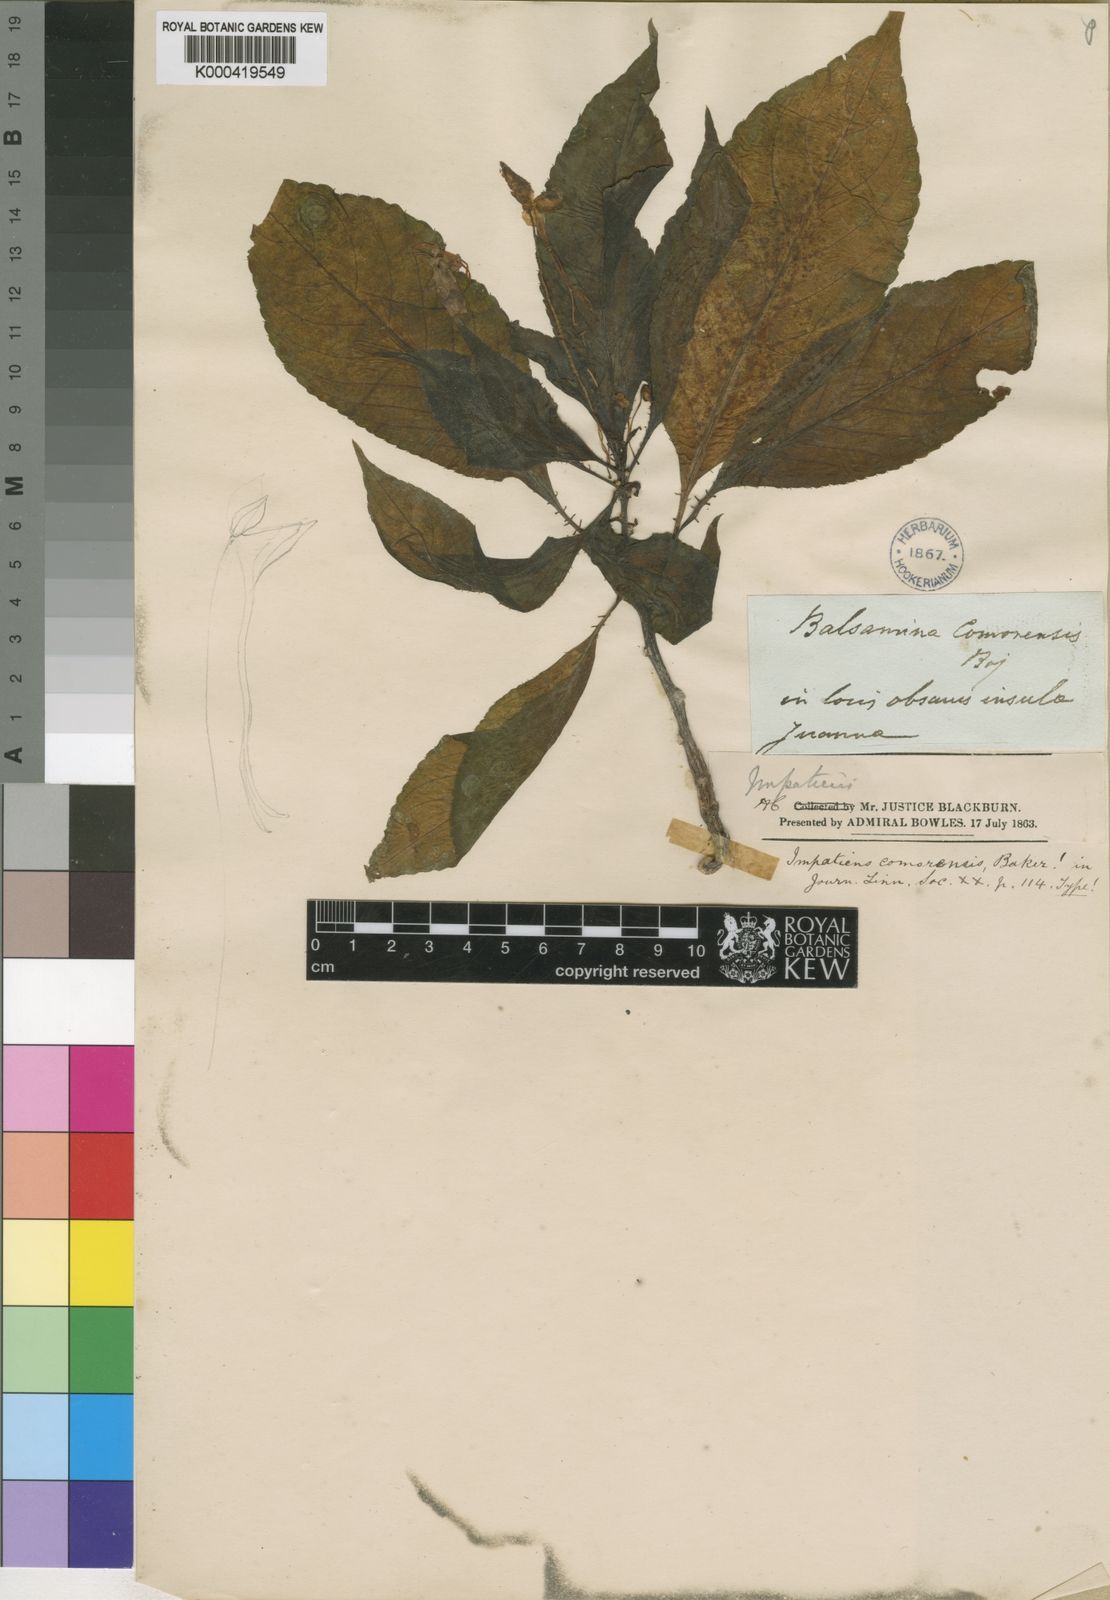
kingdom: Plantae
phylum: Tracheophyta
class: Magnoliopsida
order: Ericales
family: Balsaminaceae
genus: Impatiens
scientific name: Impatiens comorensis
